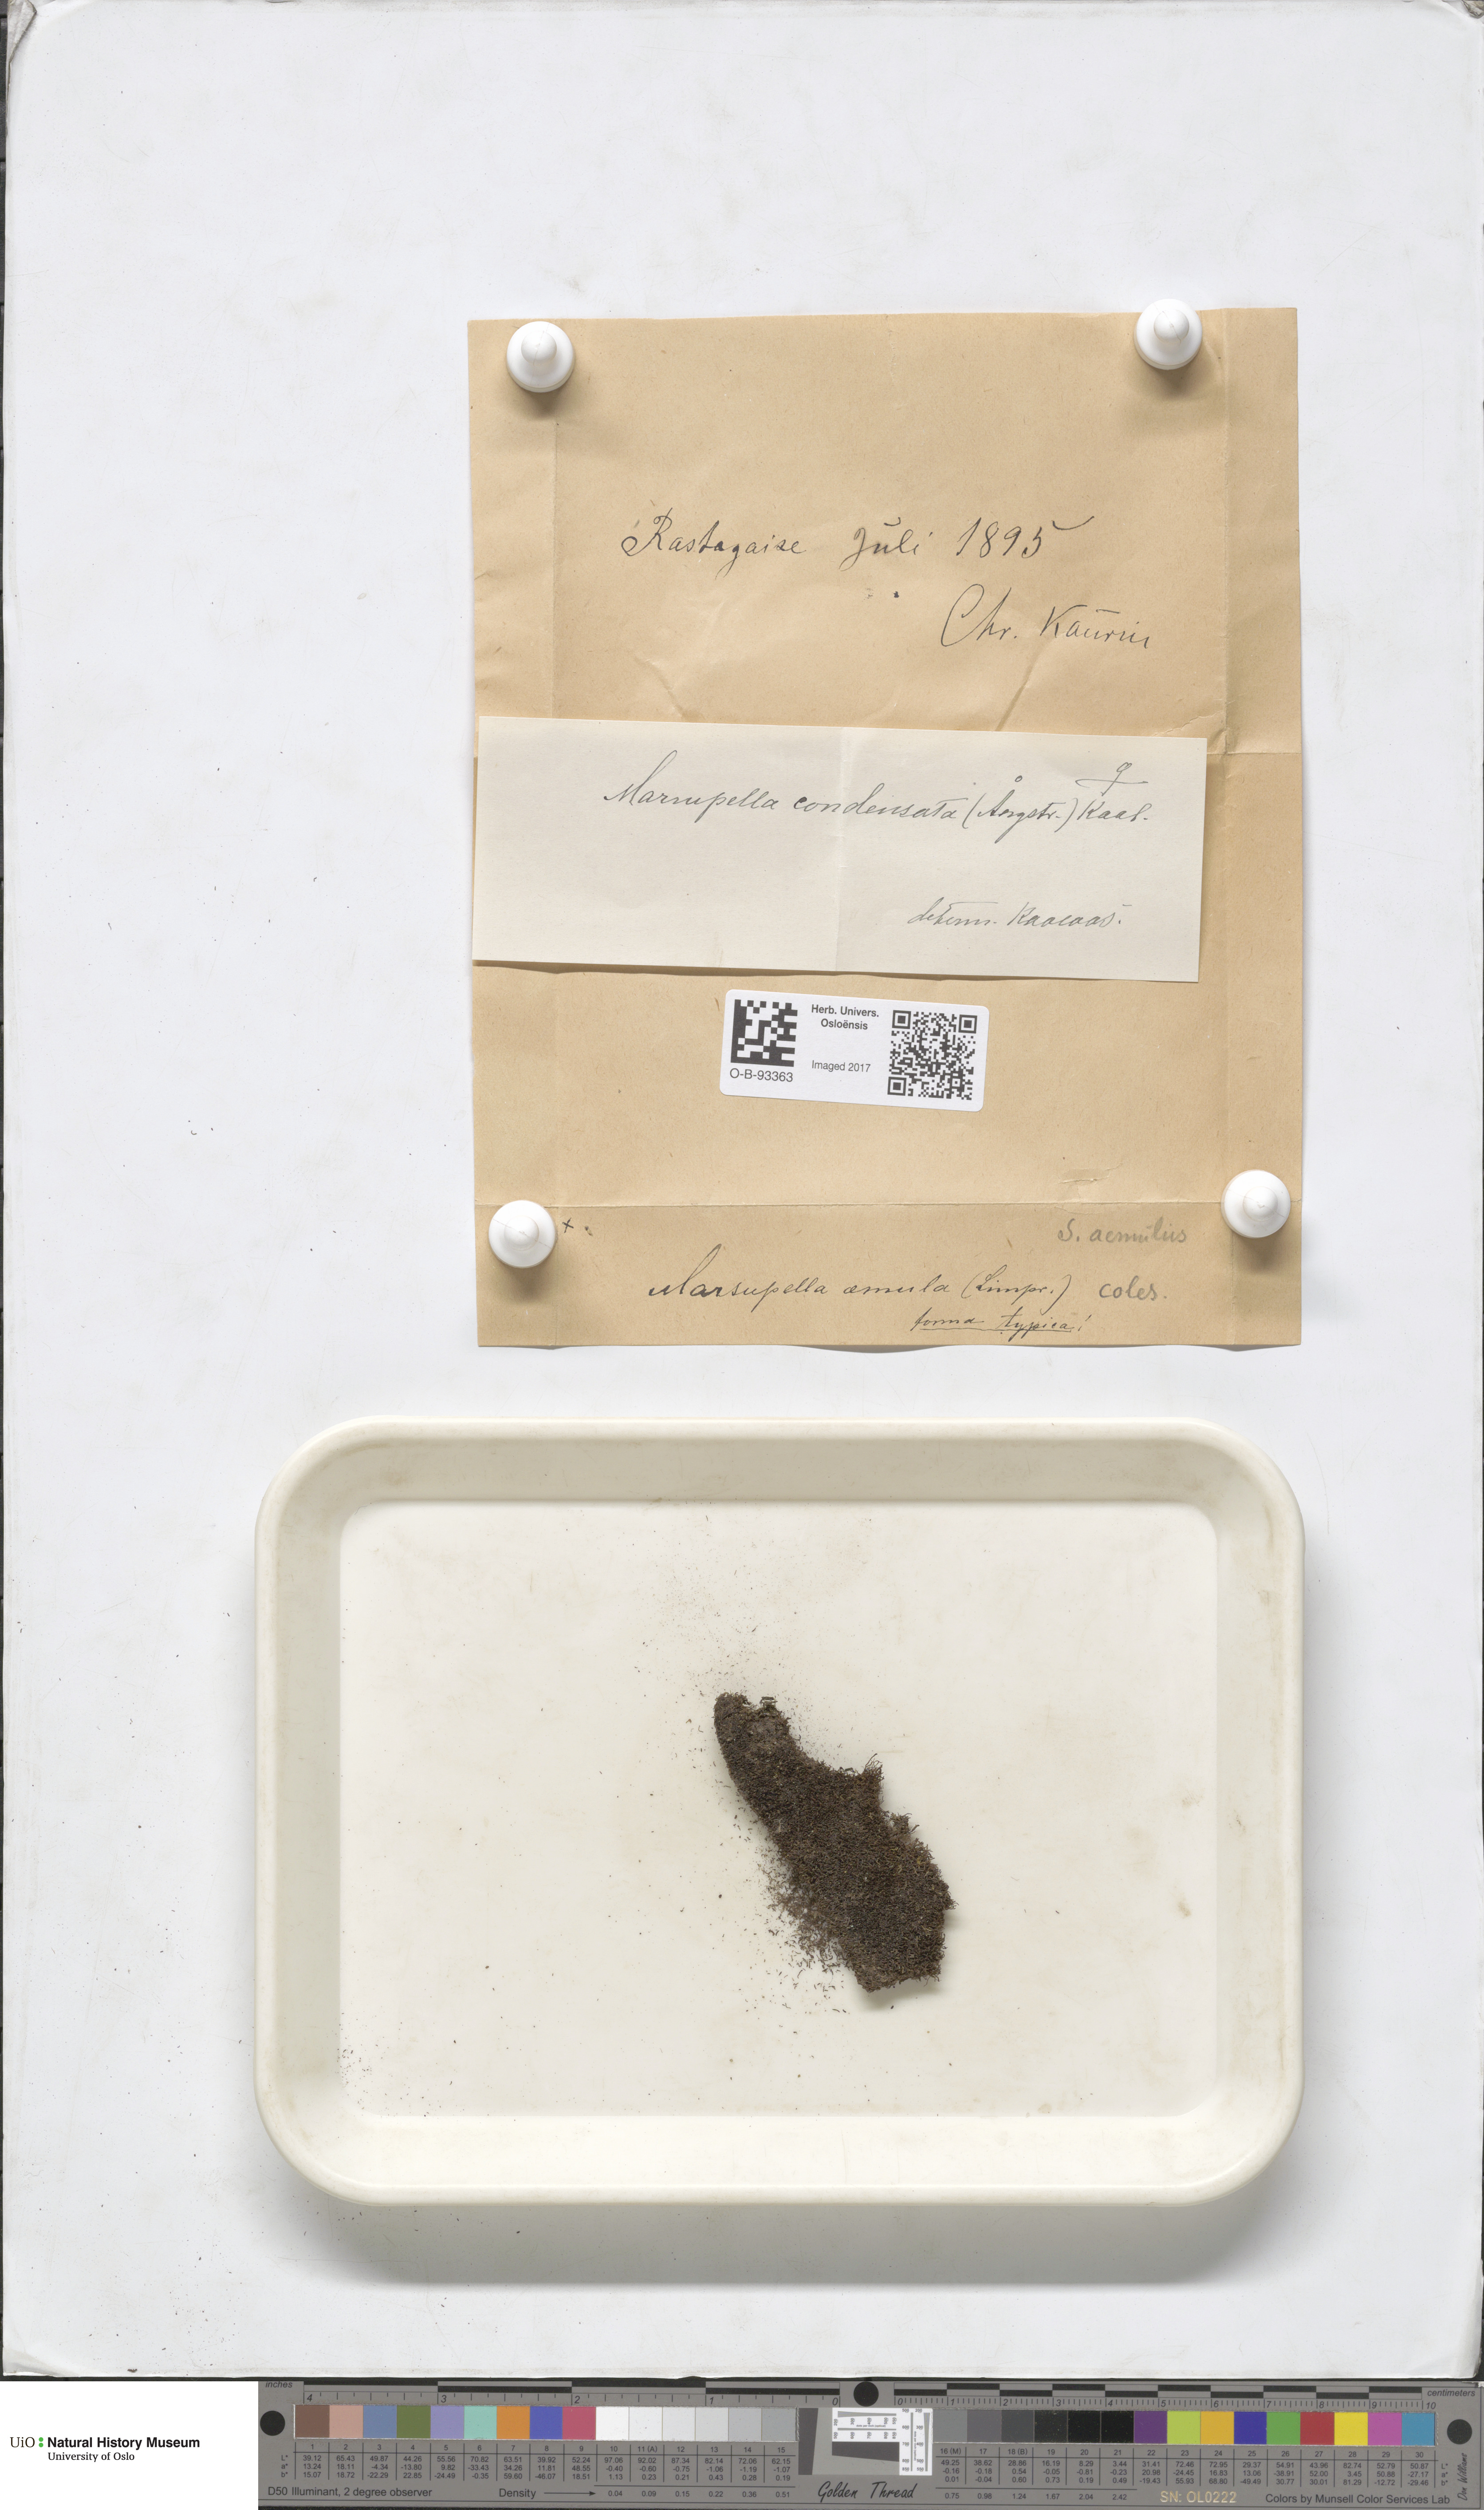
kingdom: Plantae
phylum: Marchantiophyta
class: Jungermanniopsida
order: Jungermanniales
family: Gymnomitriaceae
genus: Gymnomitrion
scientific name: Gymnomitrion brevissimum
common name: Snow rustwort
